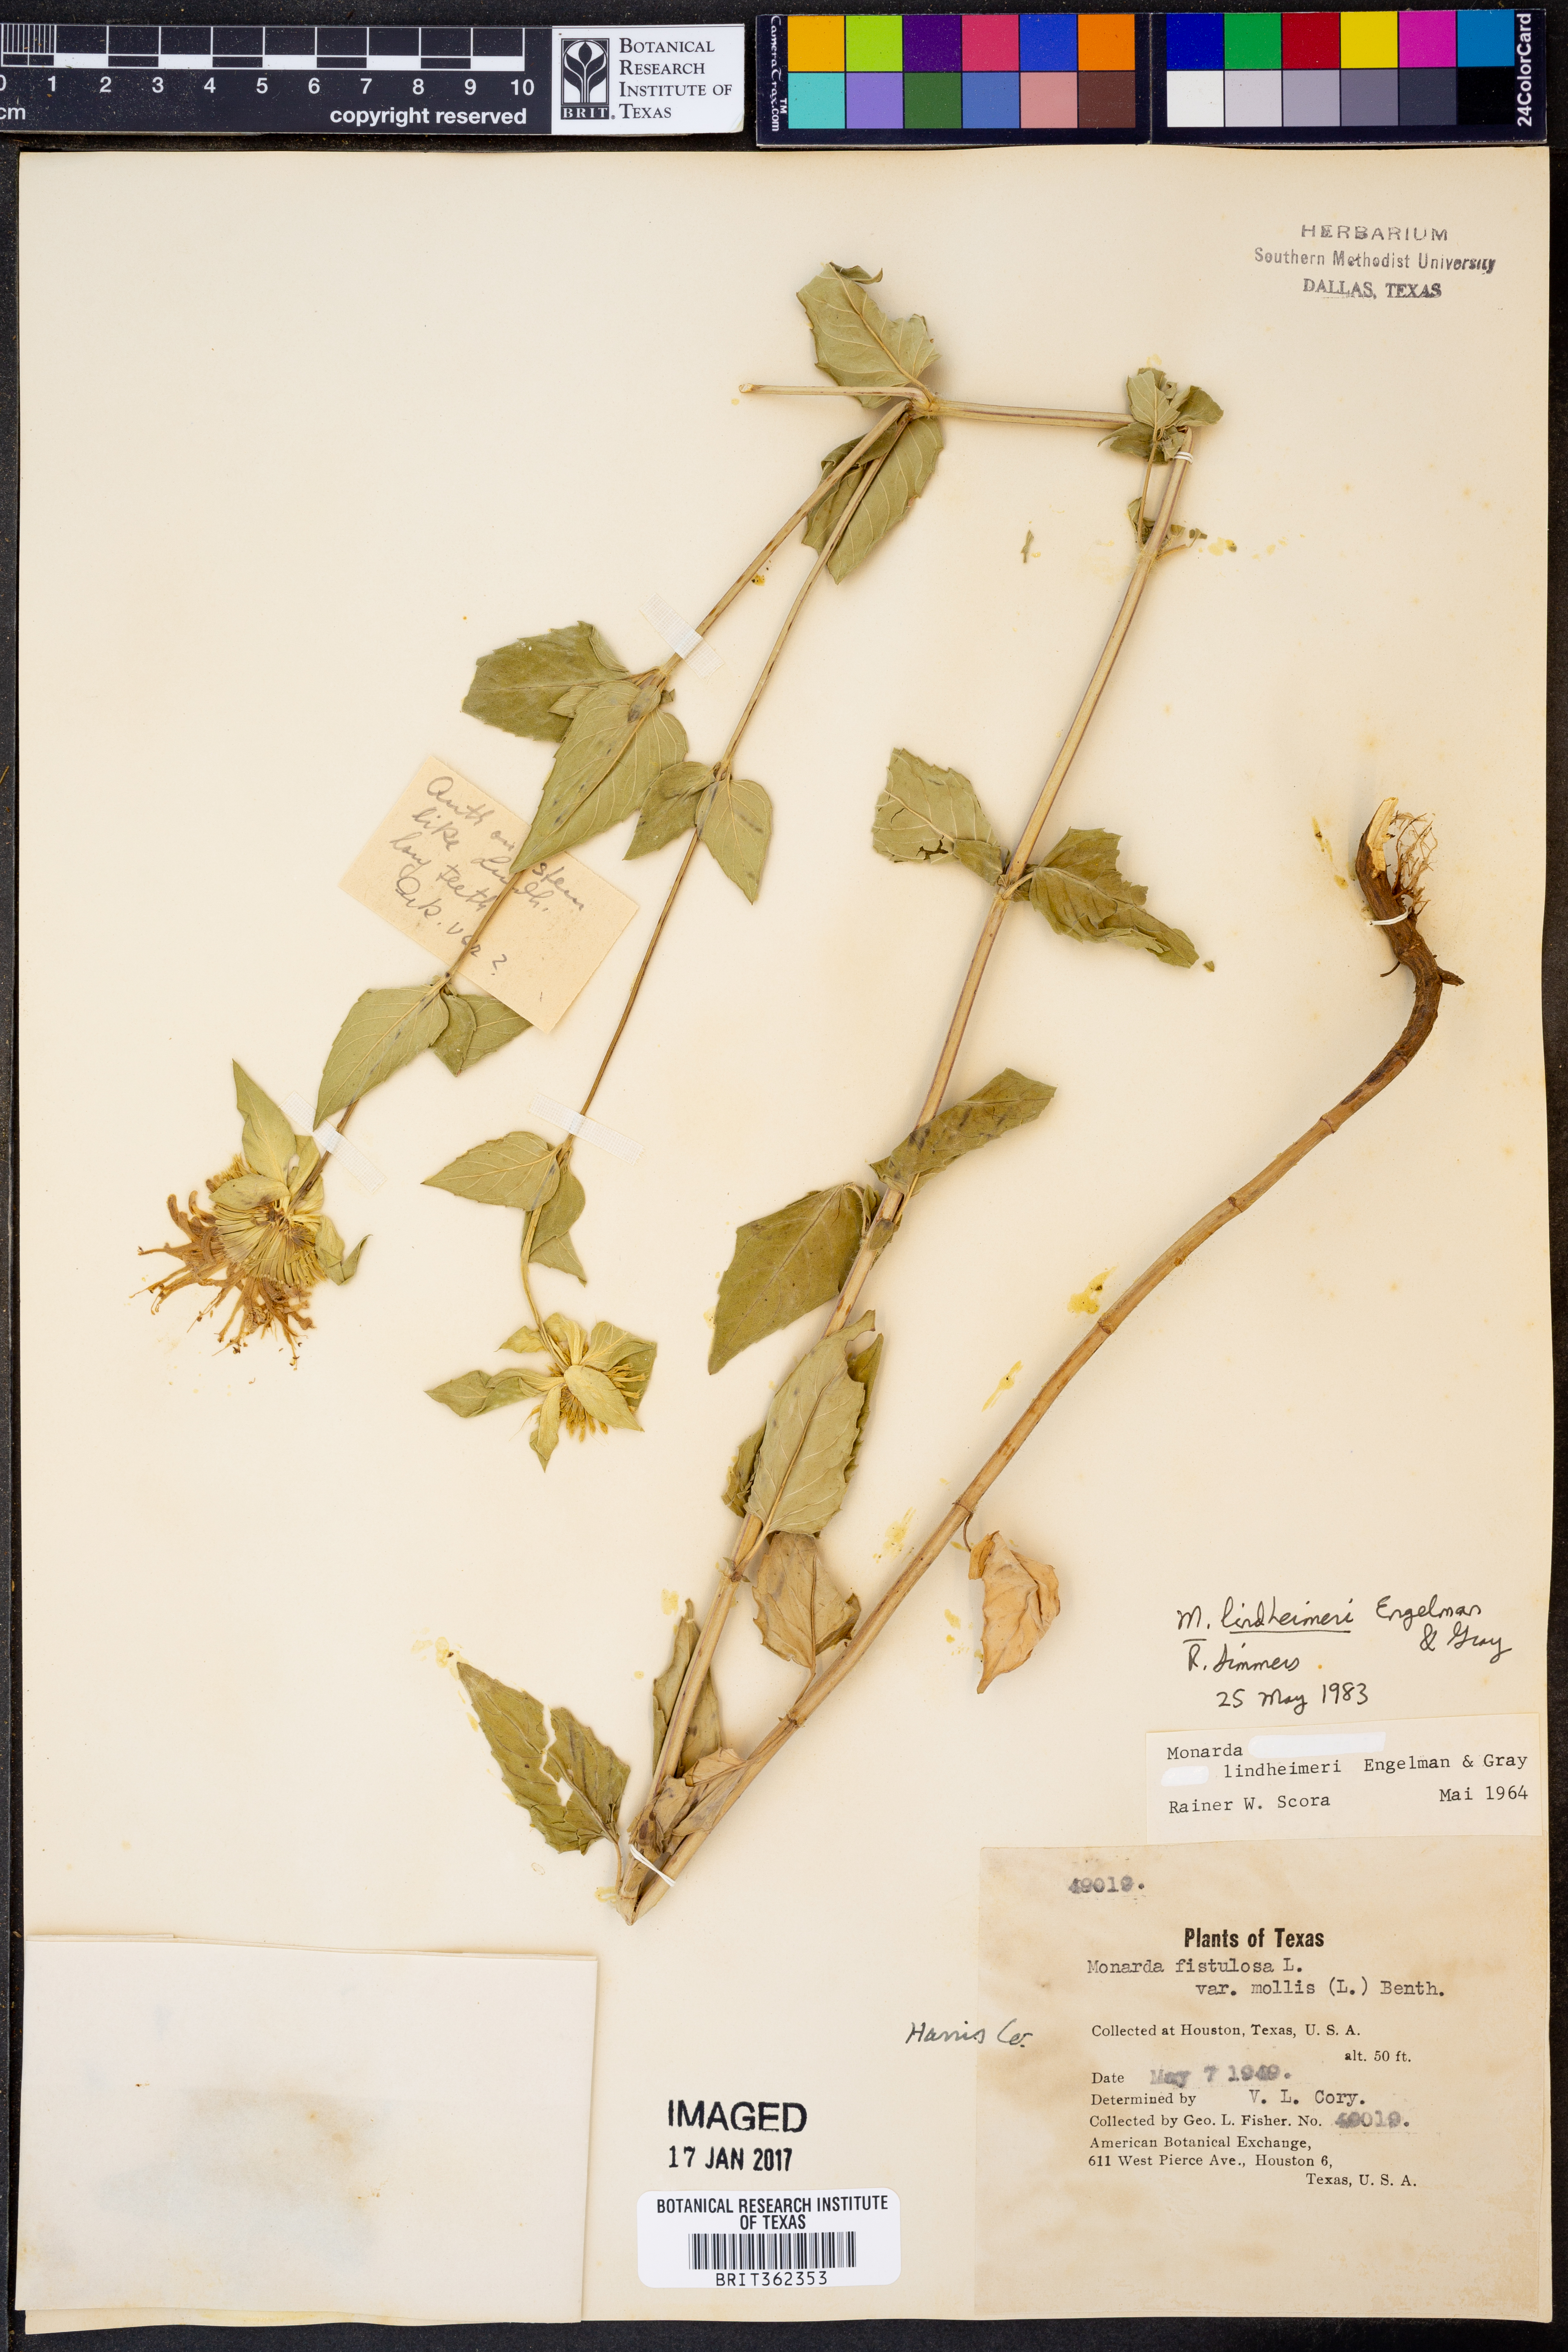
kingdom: Plantae
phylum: Tracheophyta
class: Magnoliopsida
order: Lamiales
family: Lamiaceae
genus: Monarda
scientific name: Monarda lindheimeri
